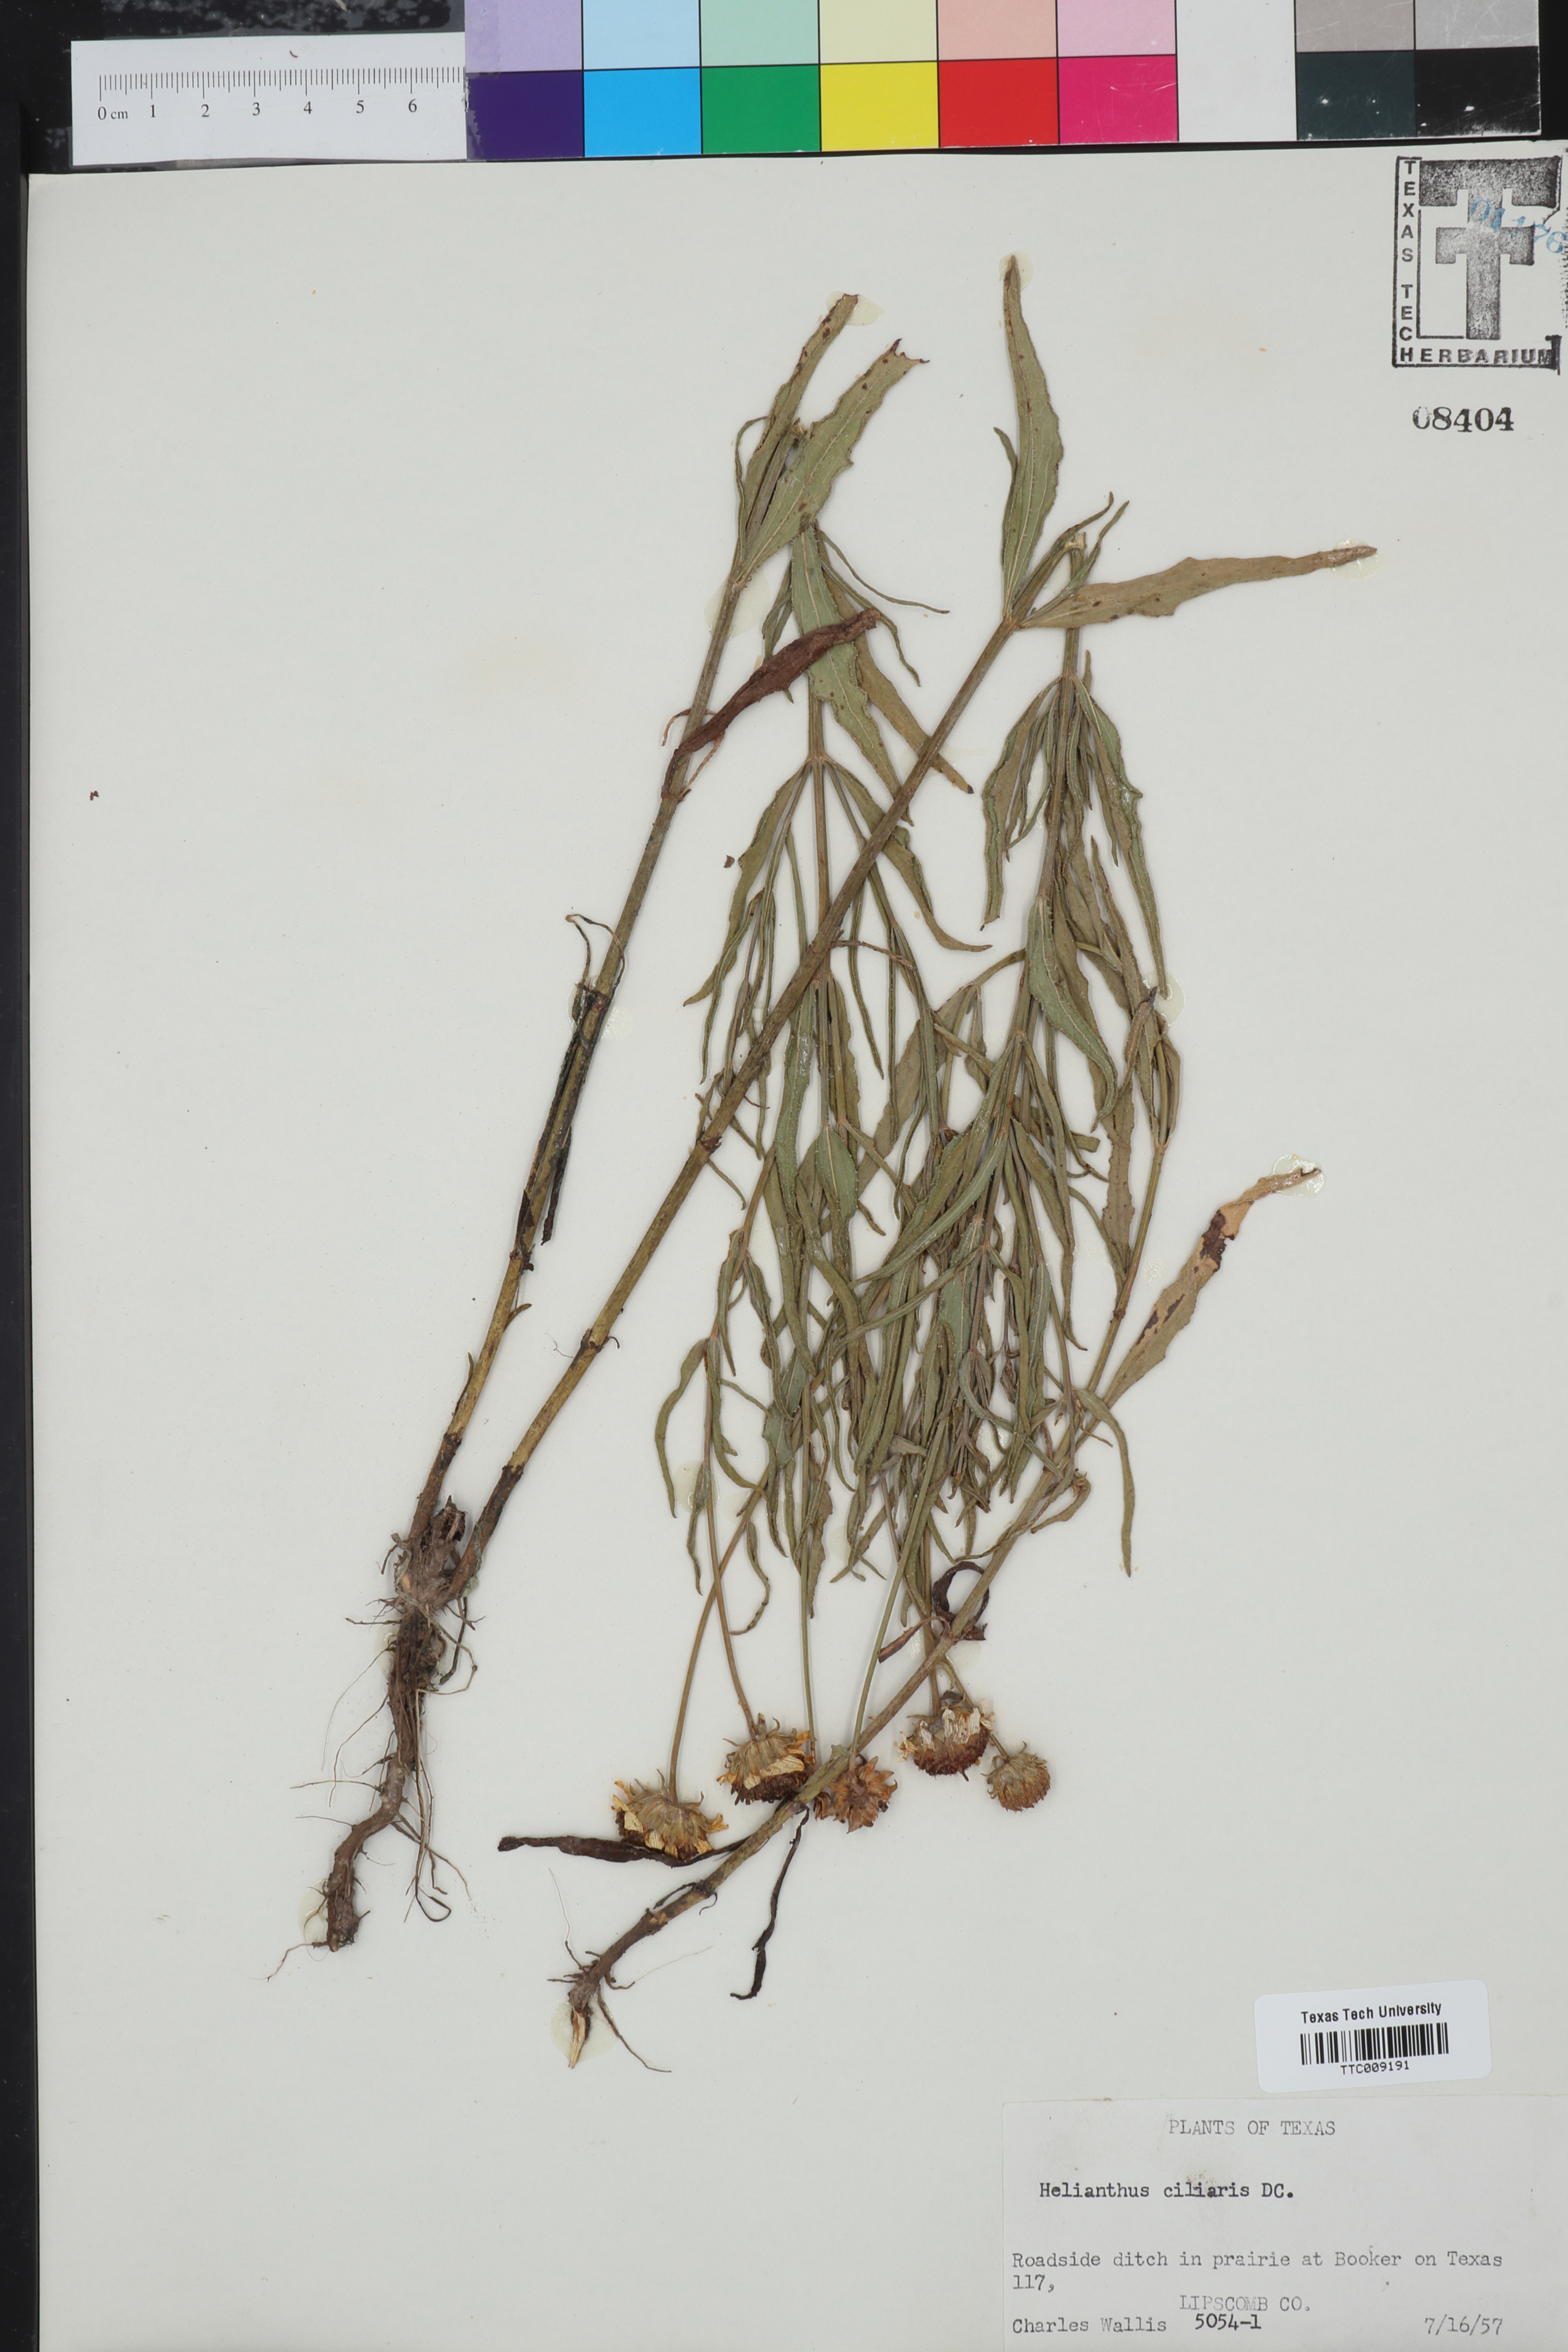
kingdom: Plantae
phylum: Tracheophyta
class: Magnoliopsida
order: Asterales
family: Asteraceae
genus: Helianthus
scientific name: Helianthus ciliaris
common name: Texas blueweed
